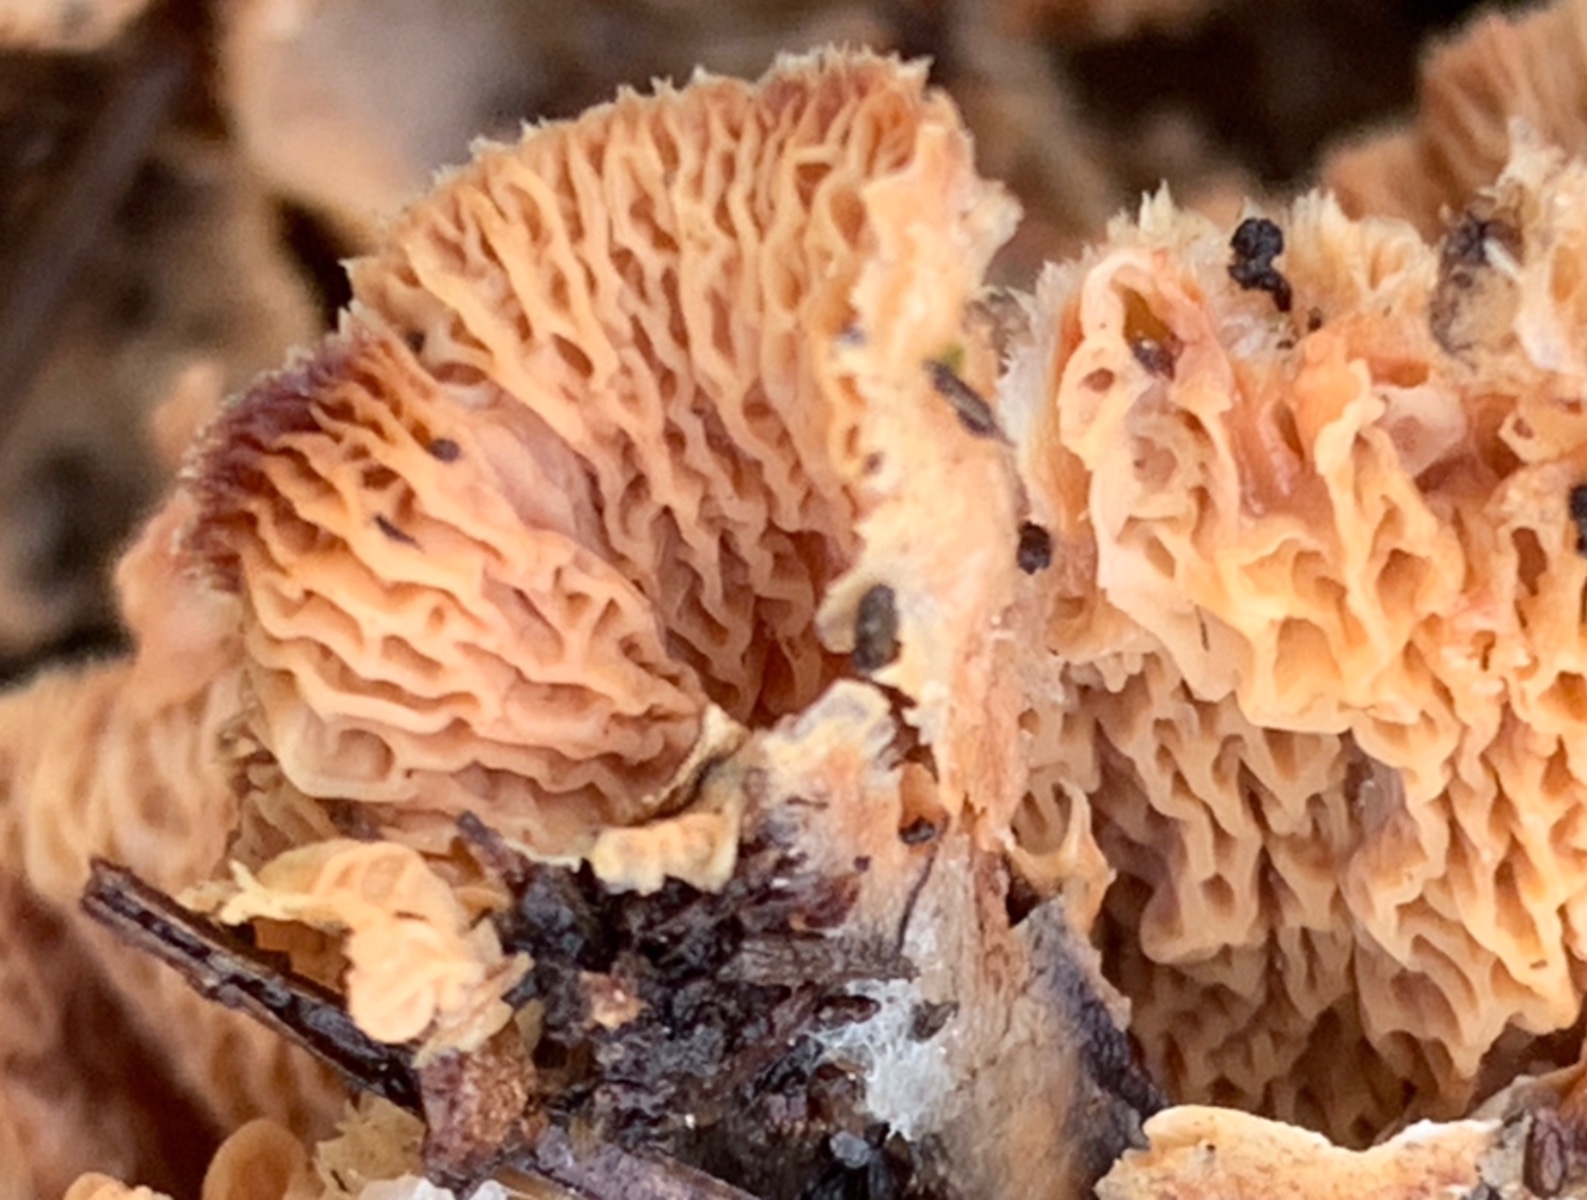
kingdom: Fungi
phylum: Basidiomycota
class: Agaricomycetes
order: Polyporales
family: Meruliaceae
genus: Phlebia
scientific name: Phlebia tremellosa
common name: bævrende åresvamp
